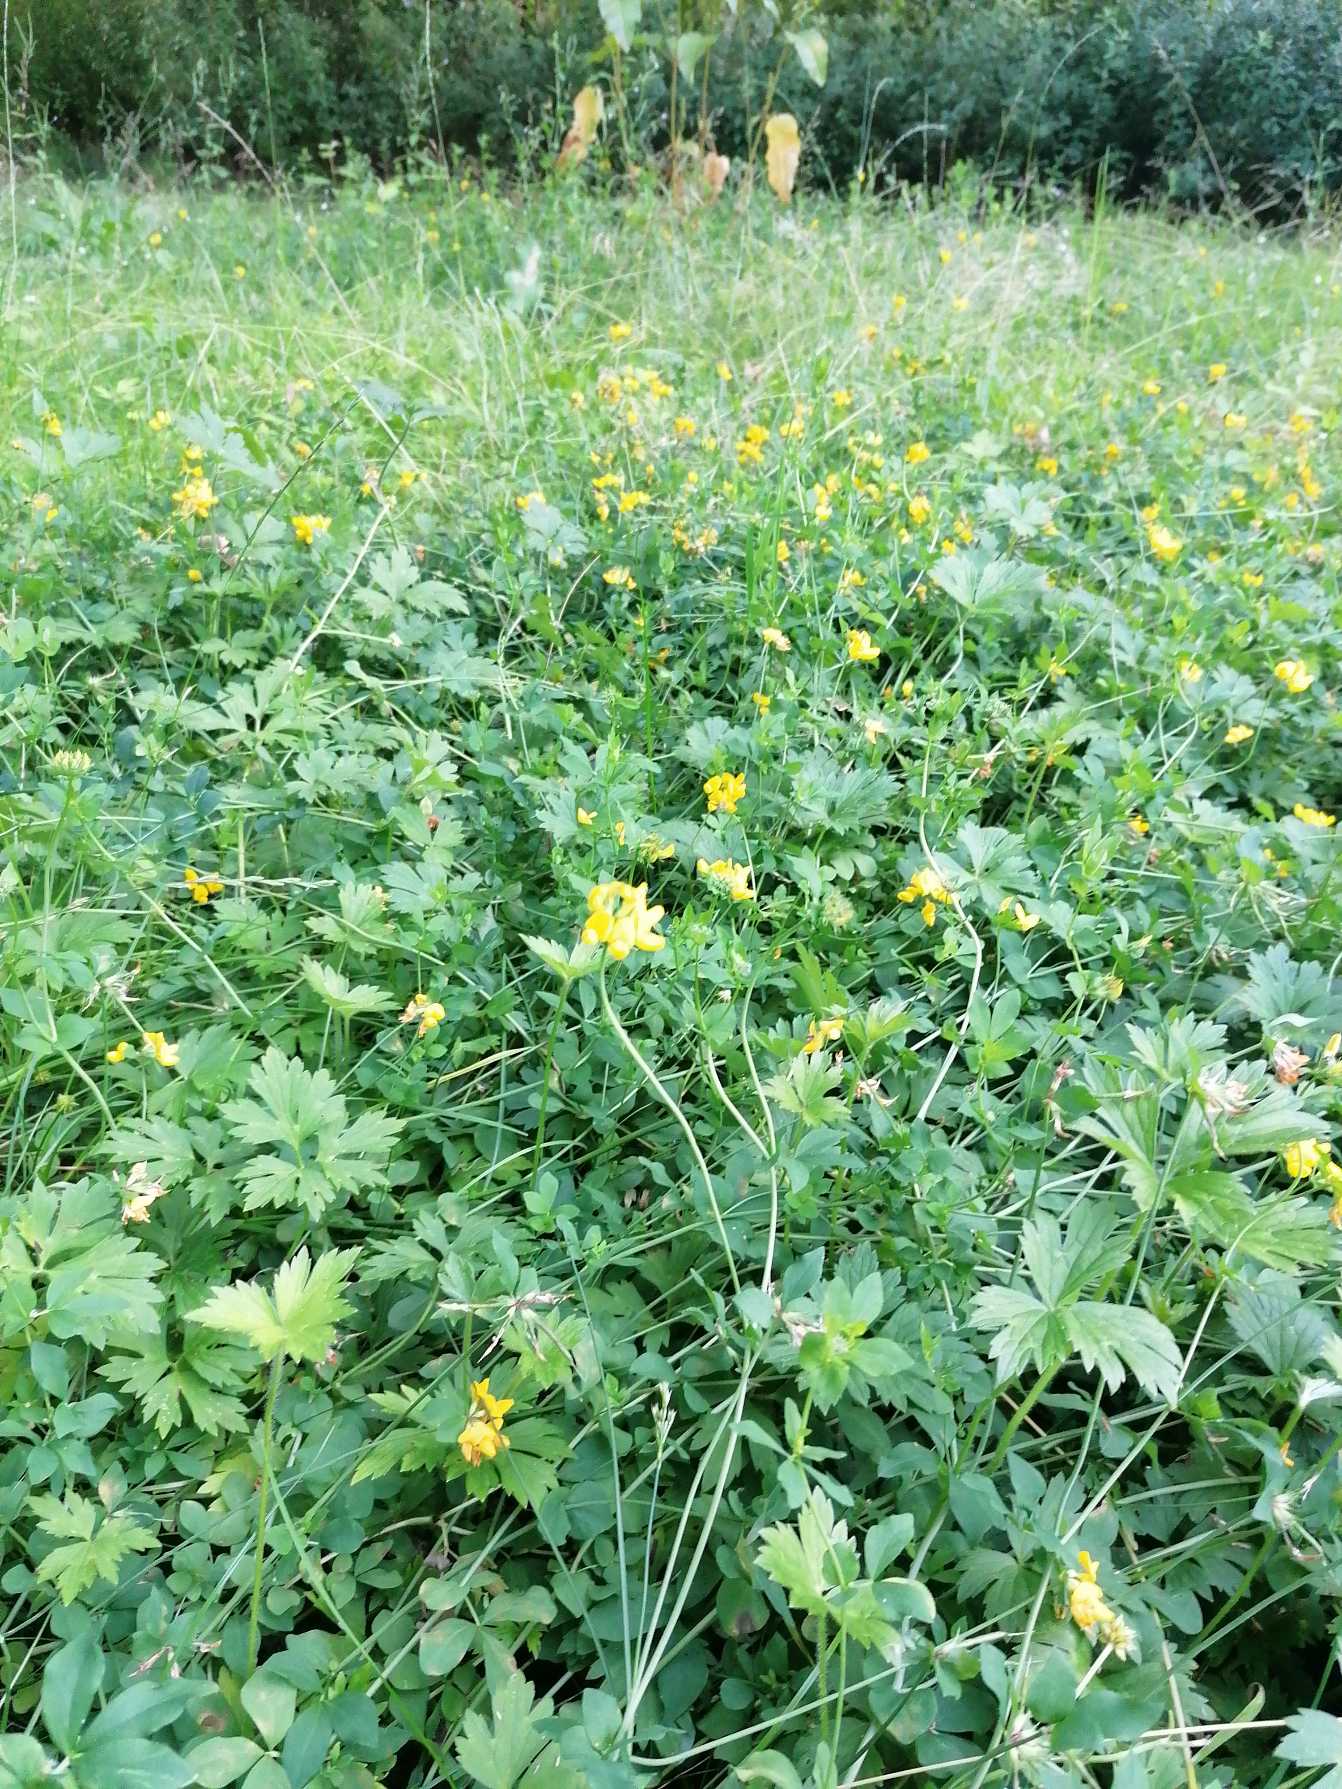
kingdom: Plantae
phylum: Tracheophyta
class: Magnoliopsida
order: Fabales
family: Fabaceae
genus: Lotus
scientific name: Lotus corniculatus
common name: Almindelig kællingetand
